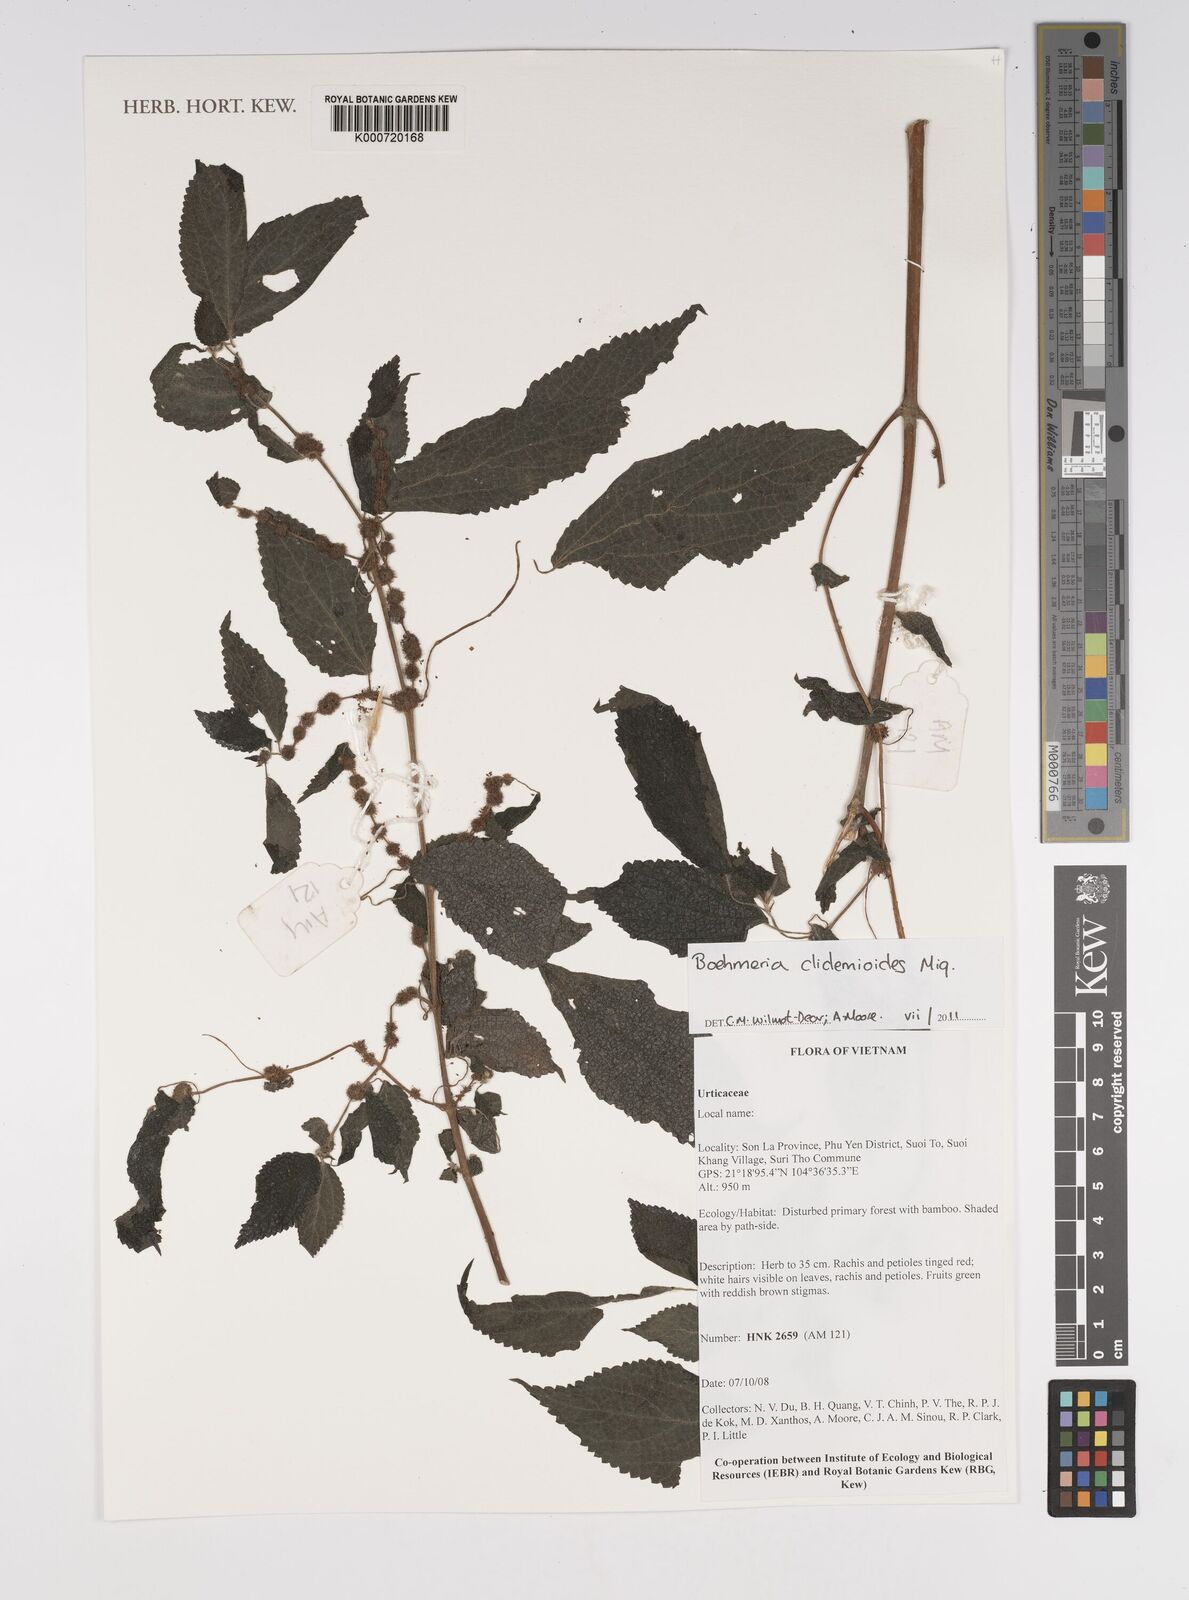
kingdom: Plantae
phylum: Tracheophyta
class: Magnoliopsida
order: Rosales
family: Urticaceae
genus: Boehmeria
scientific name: Boehmeria clidemioides
